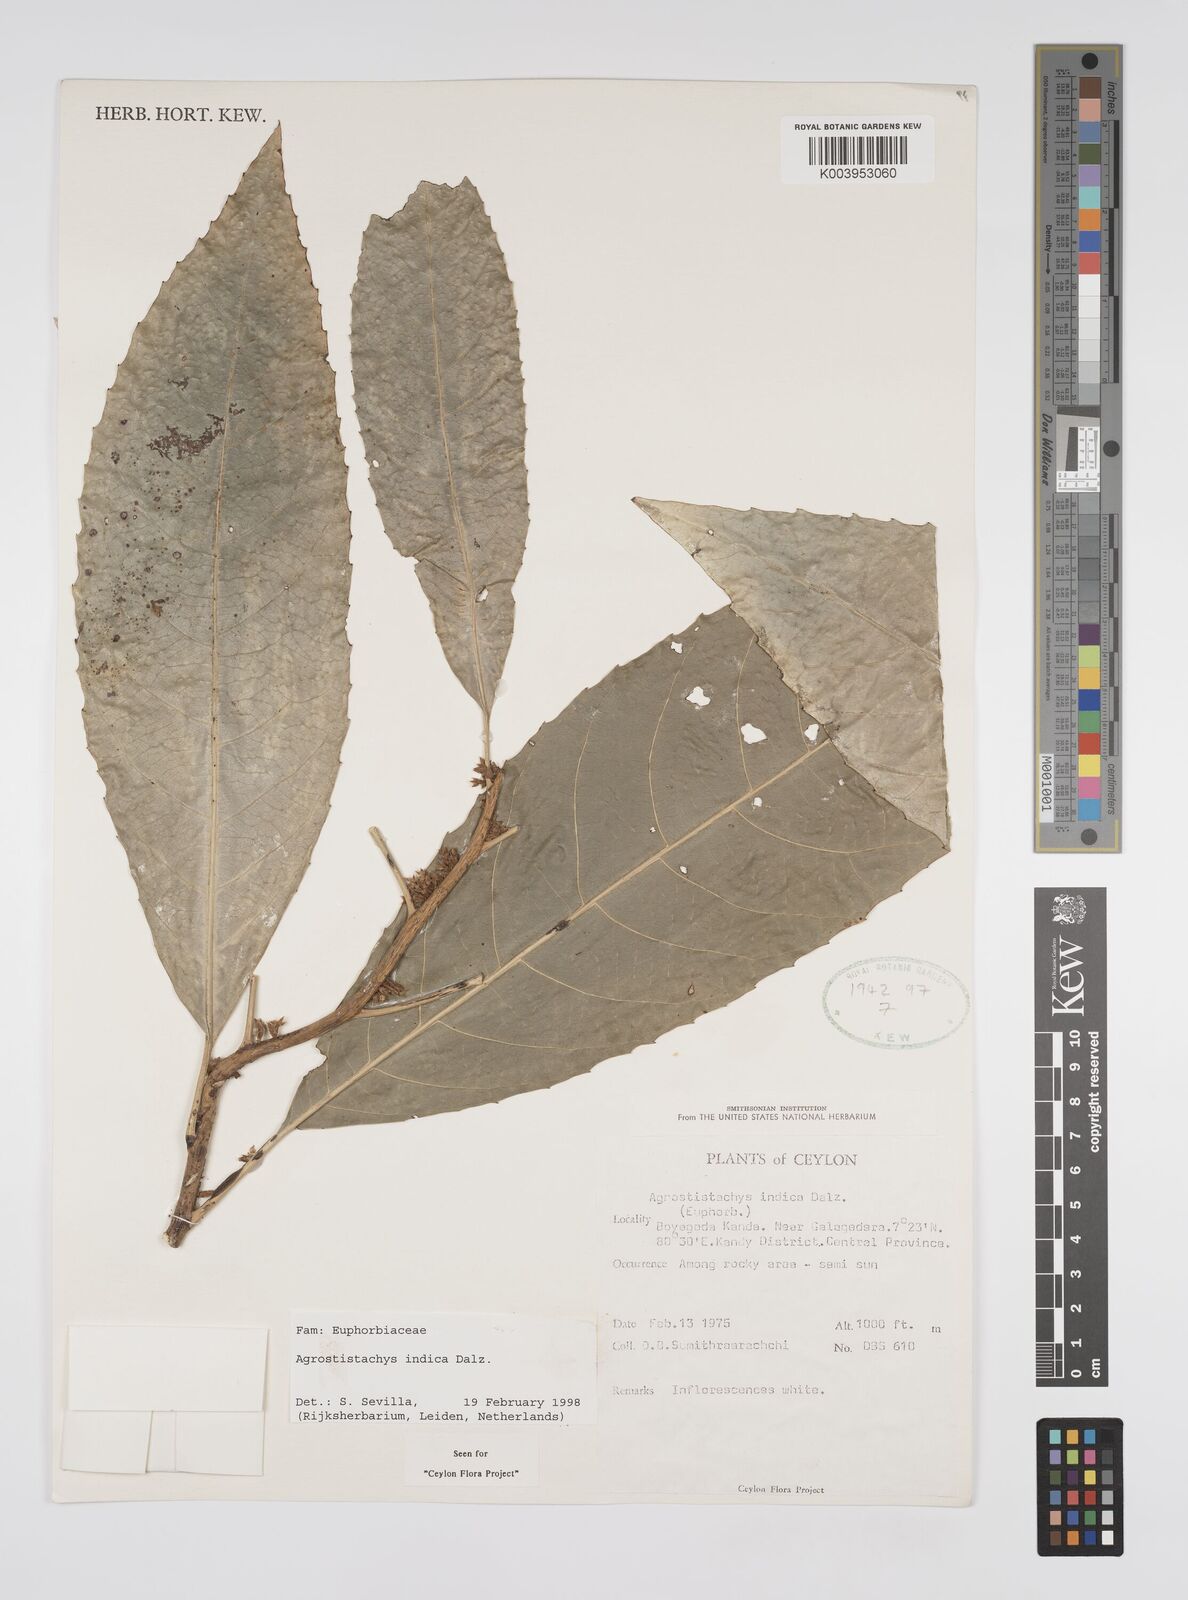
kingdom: Plantae
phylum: Tracheophyta
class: Magnoliopsida
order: Malpighiales
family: Euphorbiaceae
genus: Agrostistachys
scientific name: Agrostistachys indica
